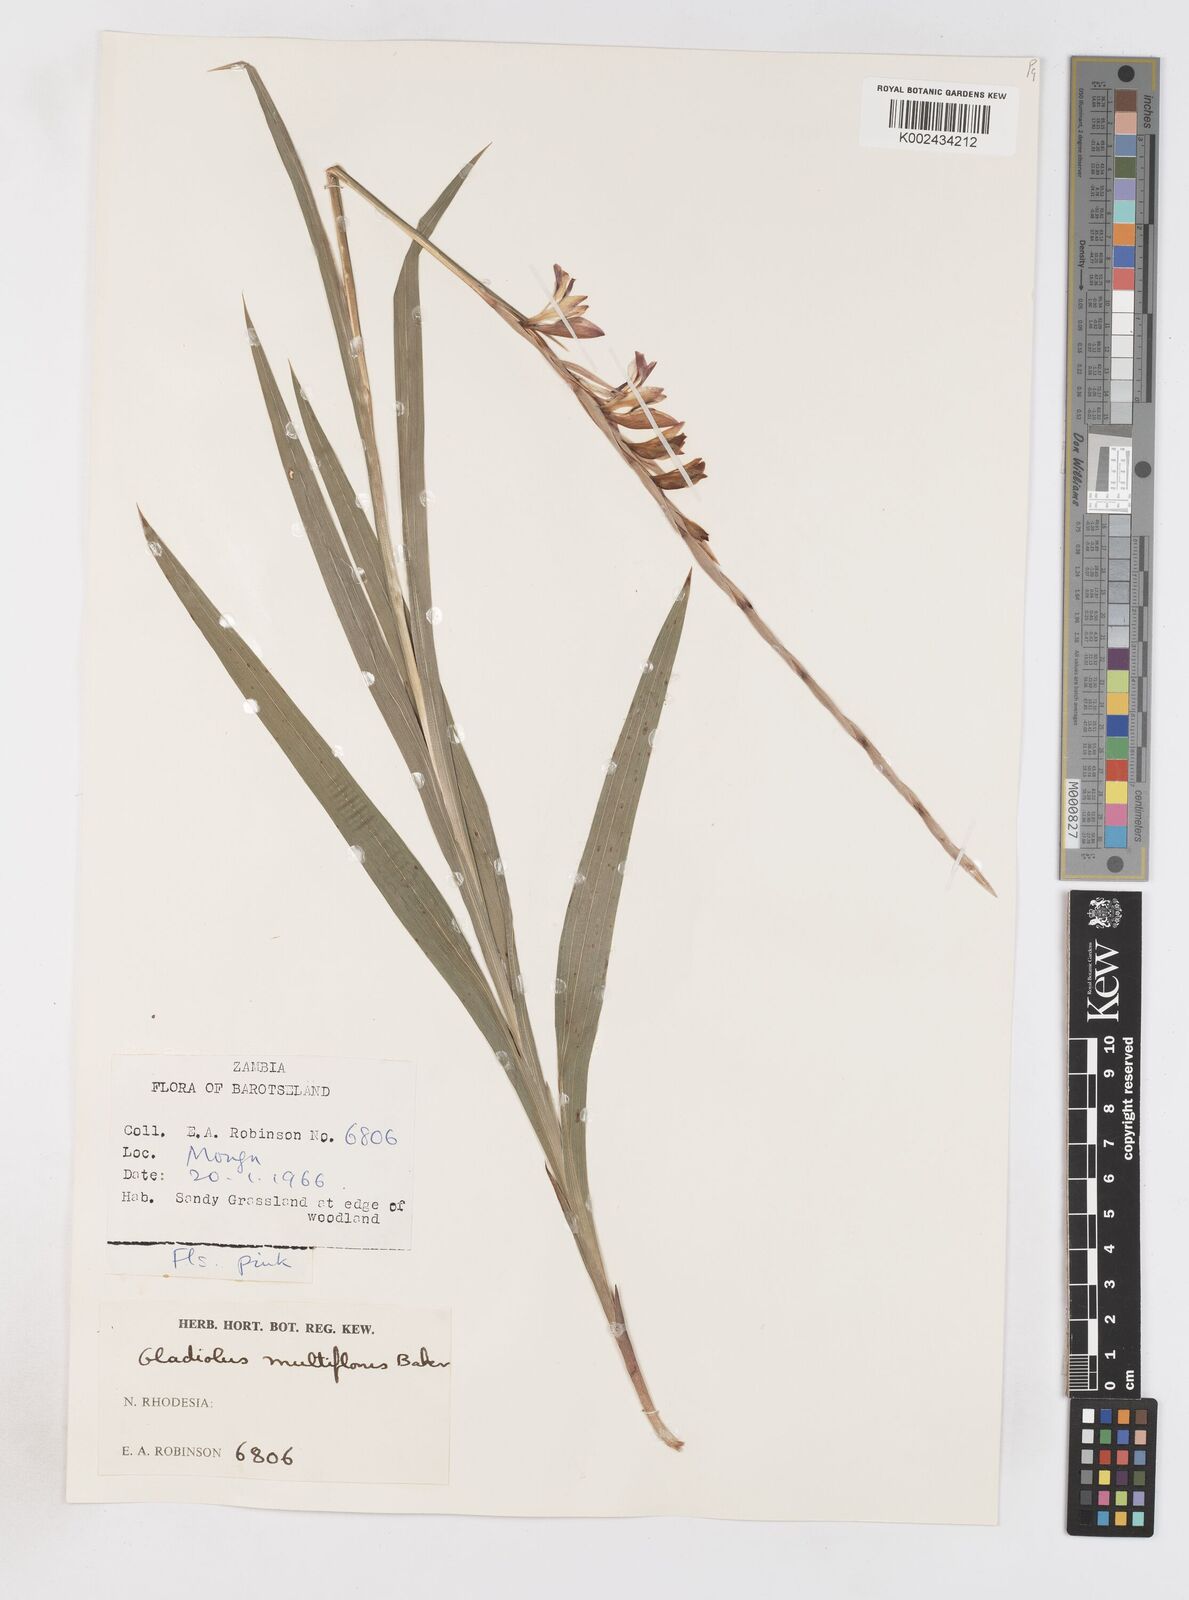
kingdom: Plantae
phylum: Tracheophyta
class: Liliopsida
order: Asparagales
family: Iridaceae
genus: Gladiolus
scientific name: Gladiolus gregarius
